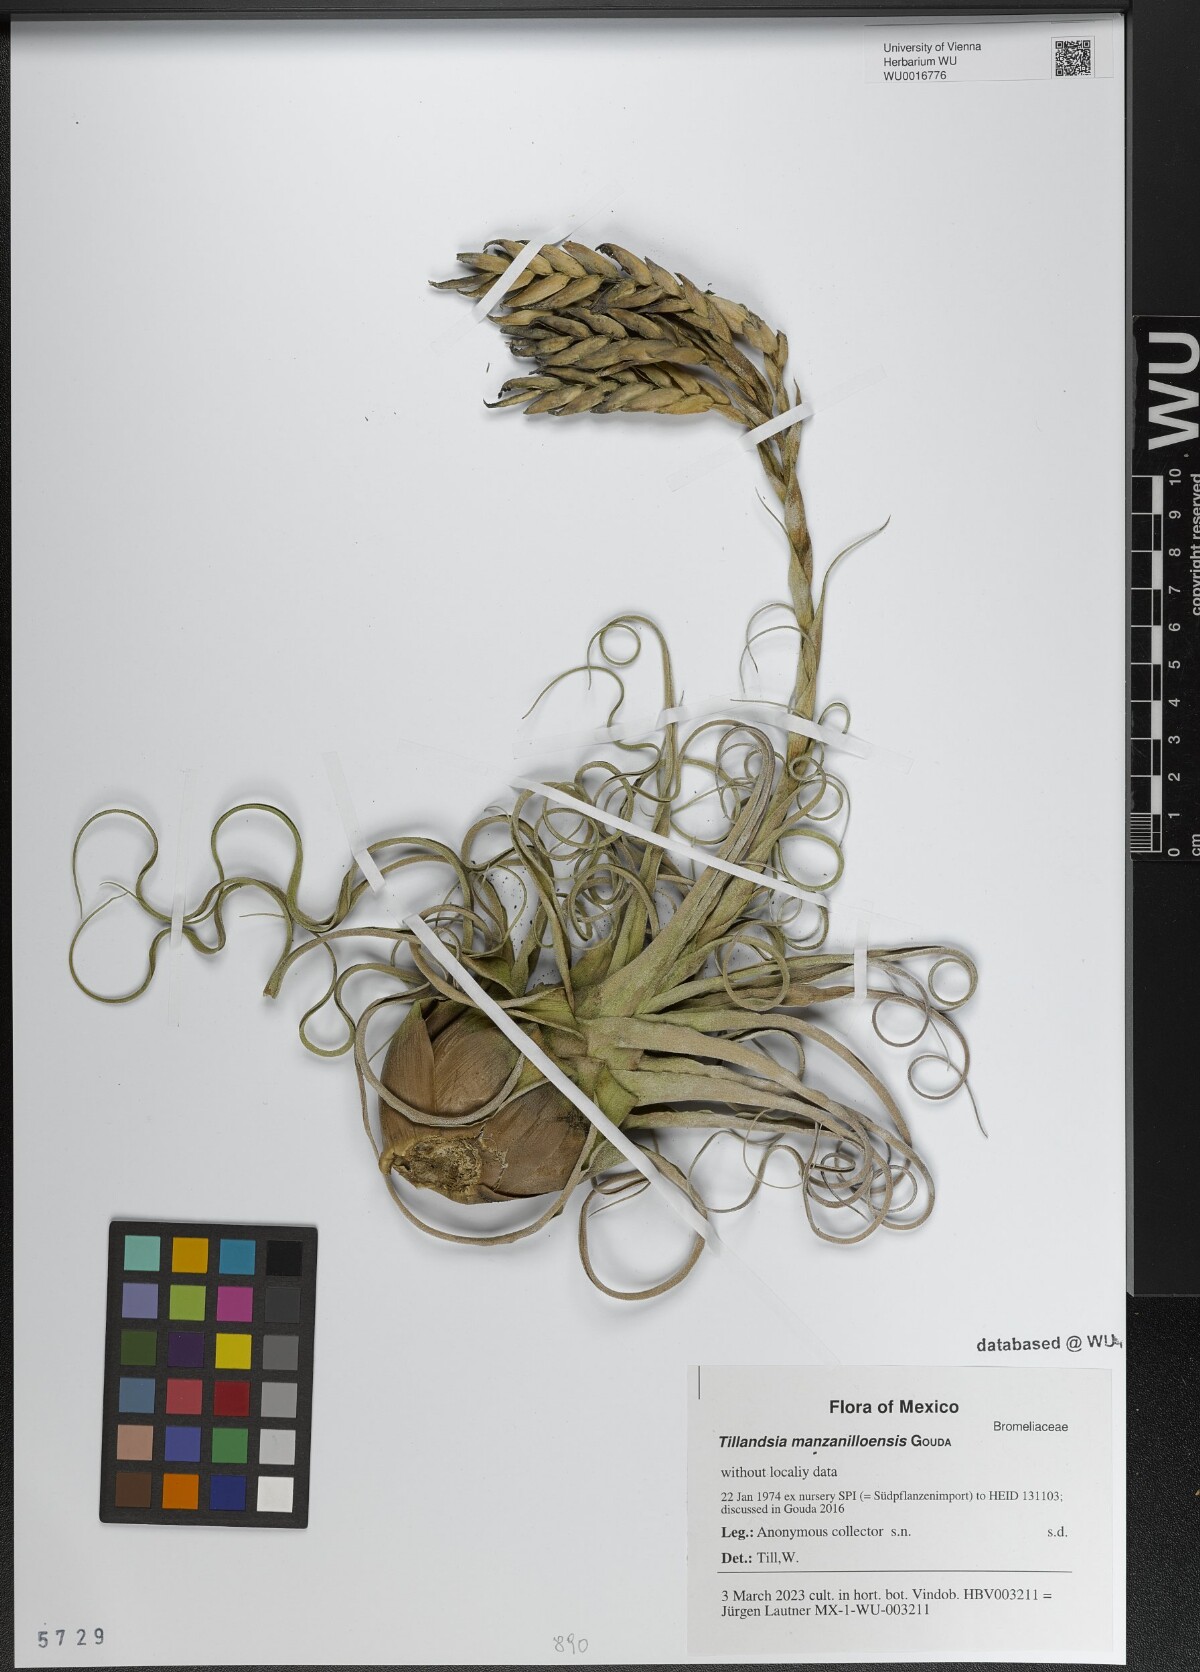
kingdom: Plantae
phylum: Tracheophyta
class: Liliopsida
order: Poales
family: Bromeliaceae
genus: Tillandsia
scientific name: Tillandsia manzanilloensis
